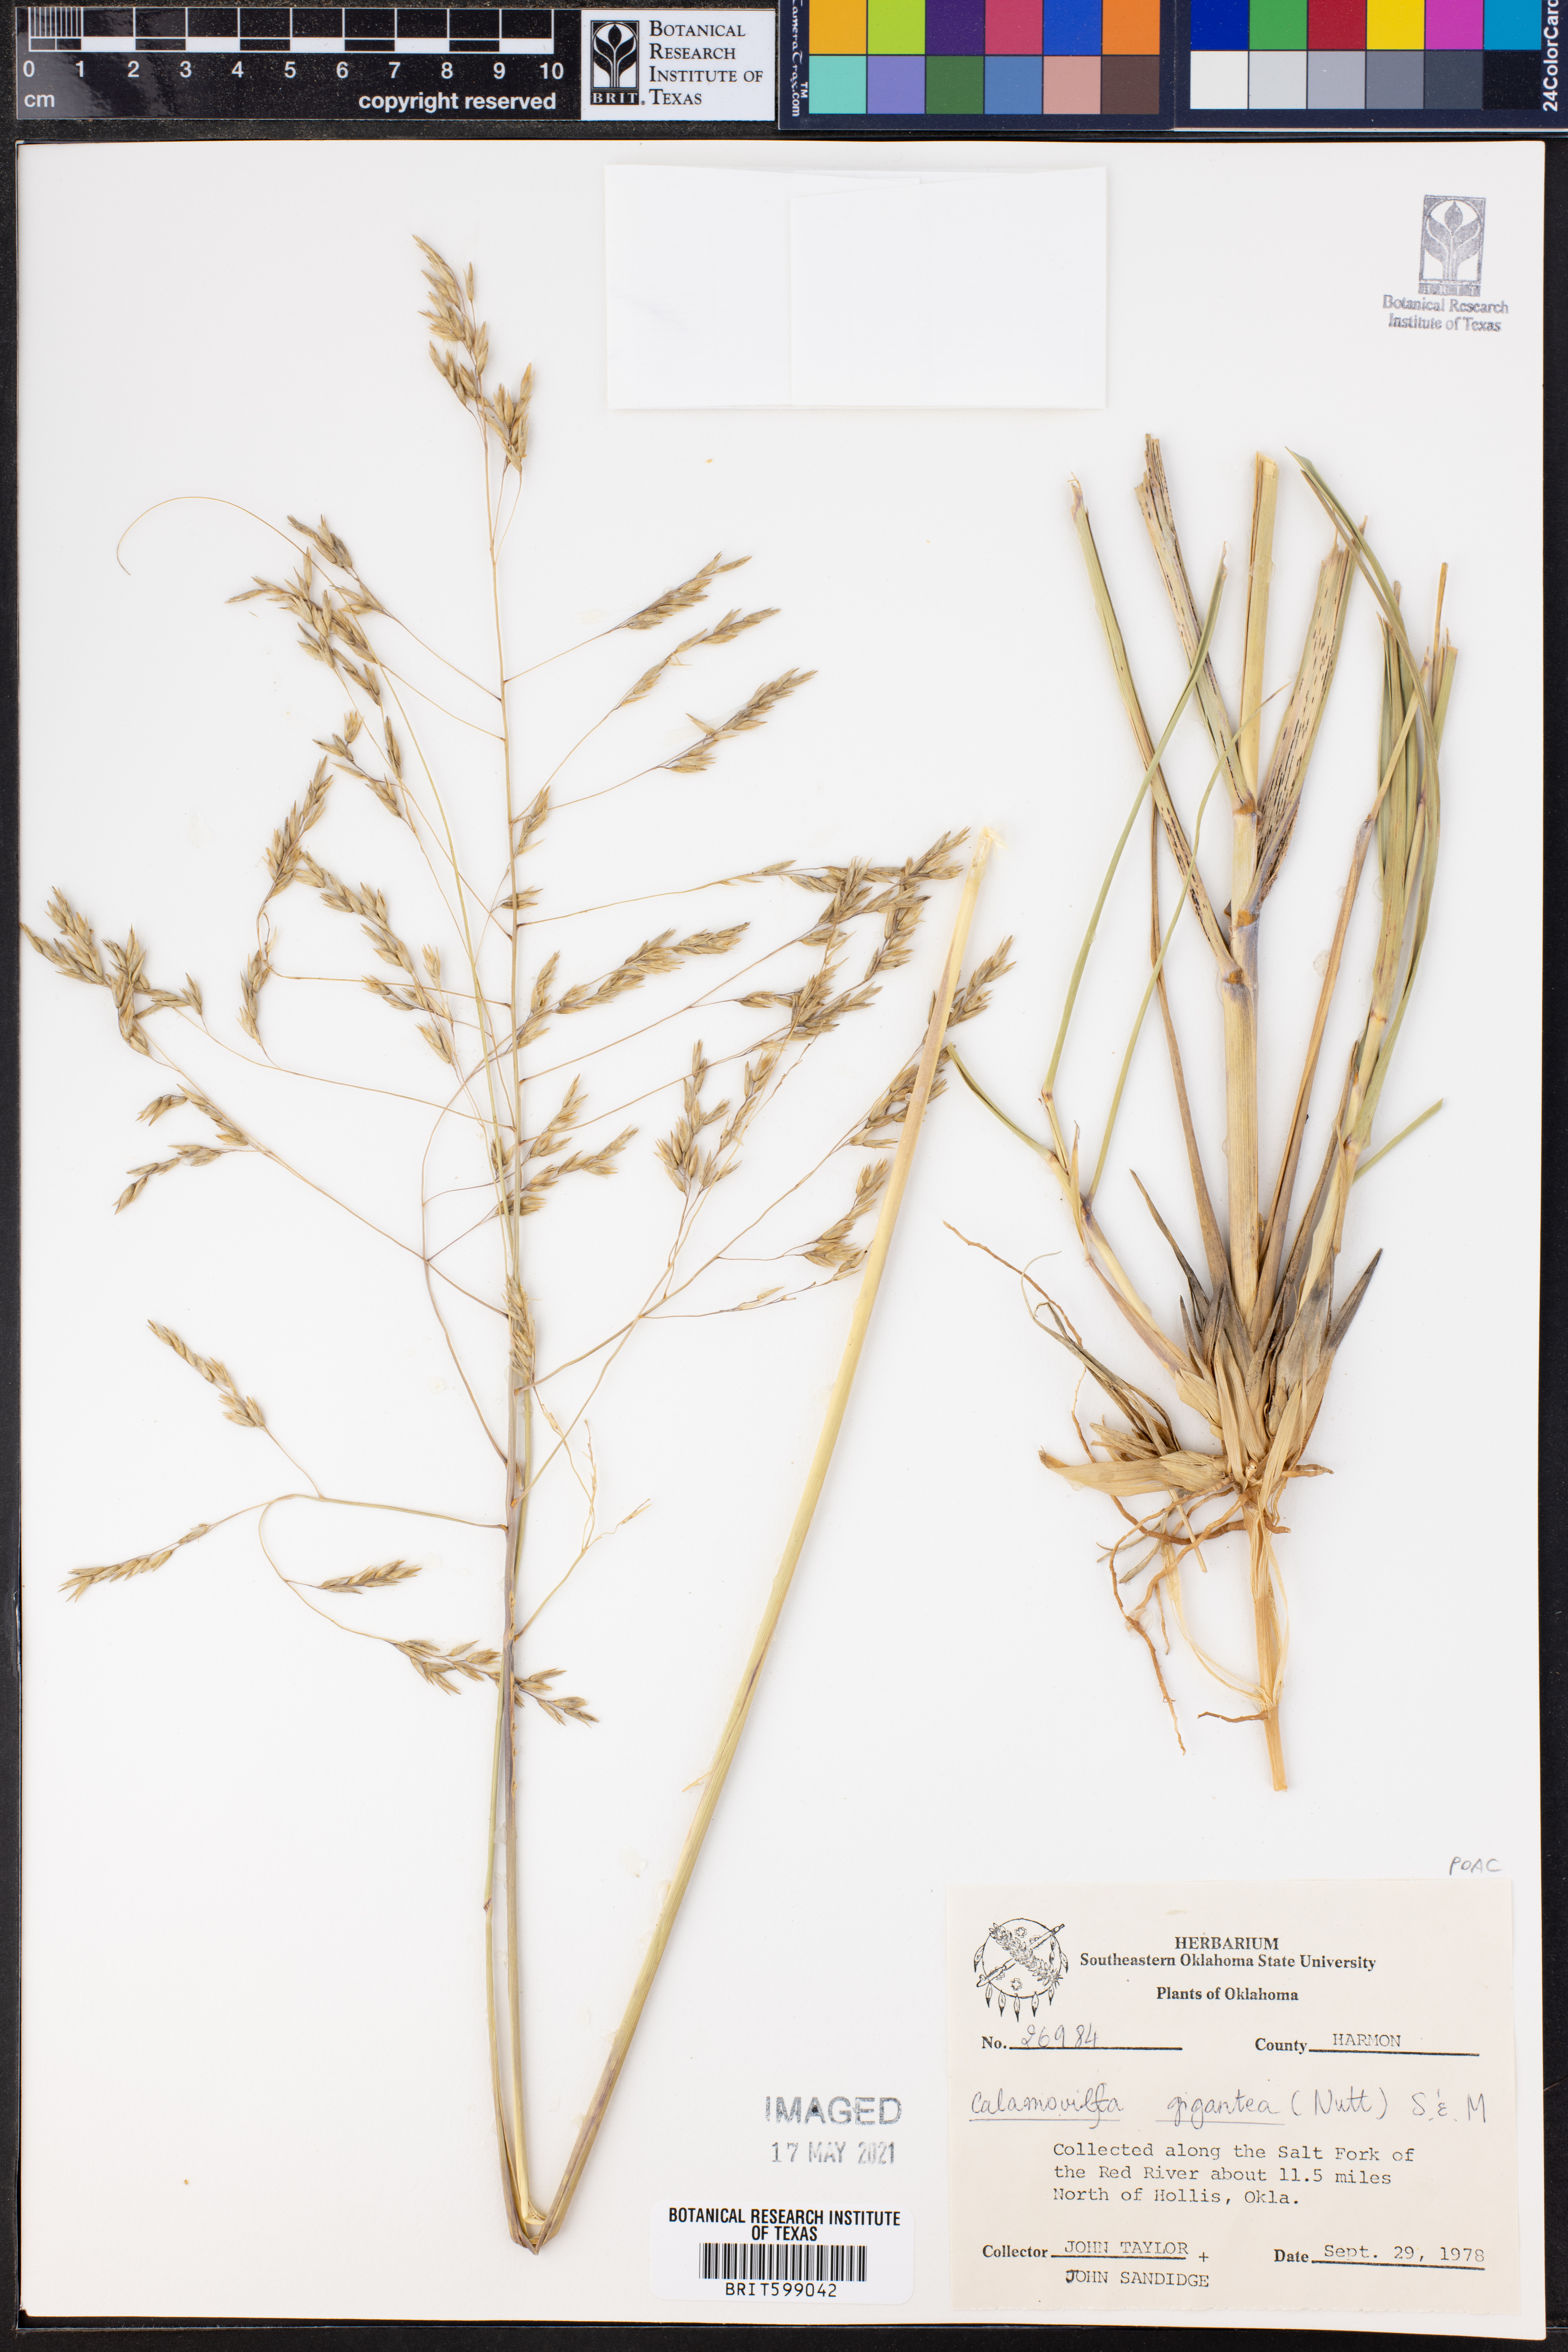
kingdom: Plantae
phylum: Tracheophyta
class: Liliopsida
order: Poales
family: Poaceae
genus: Sporobolus
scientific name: Sporobolus arenicola
